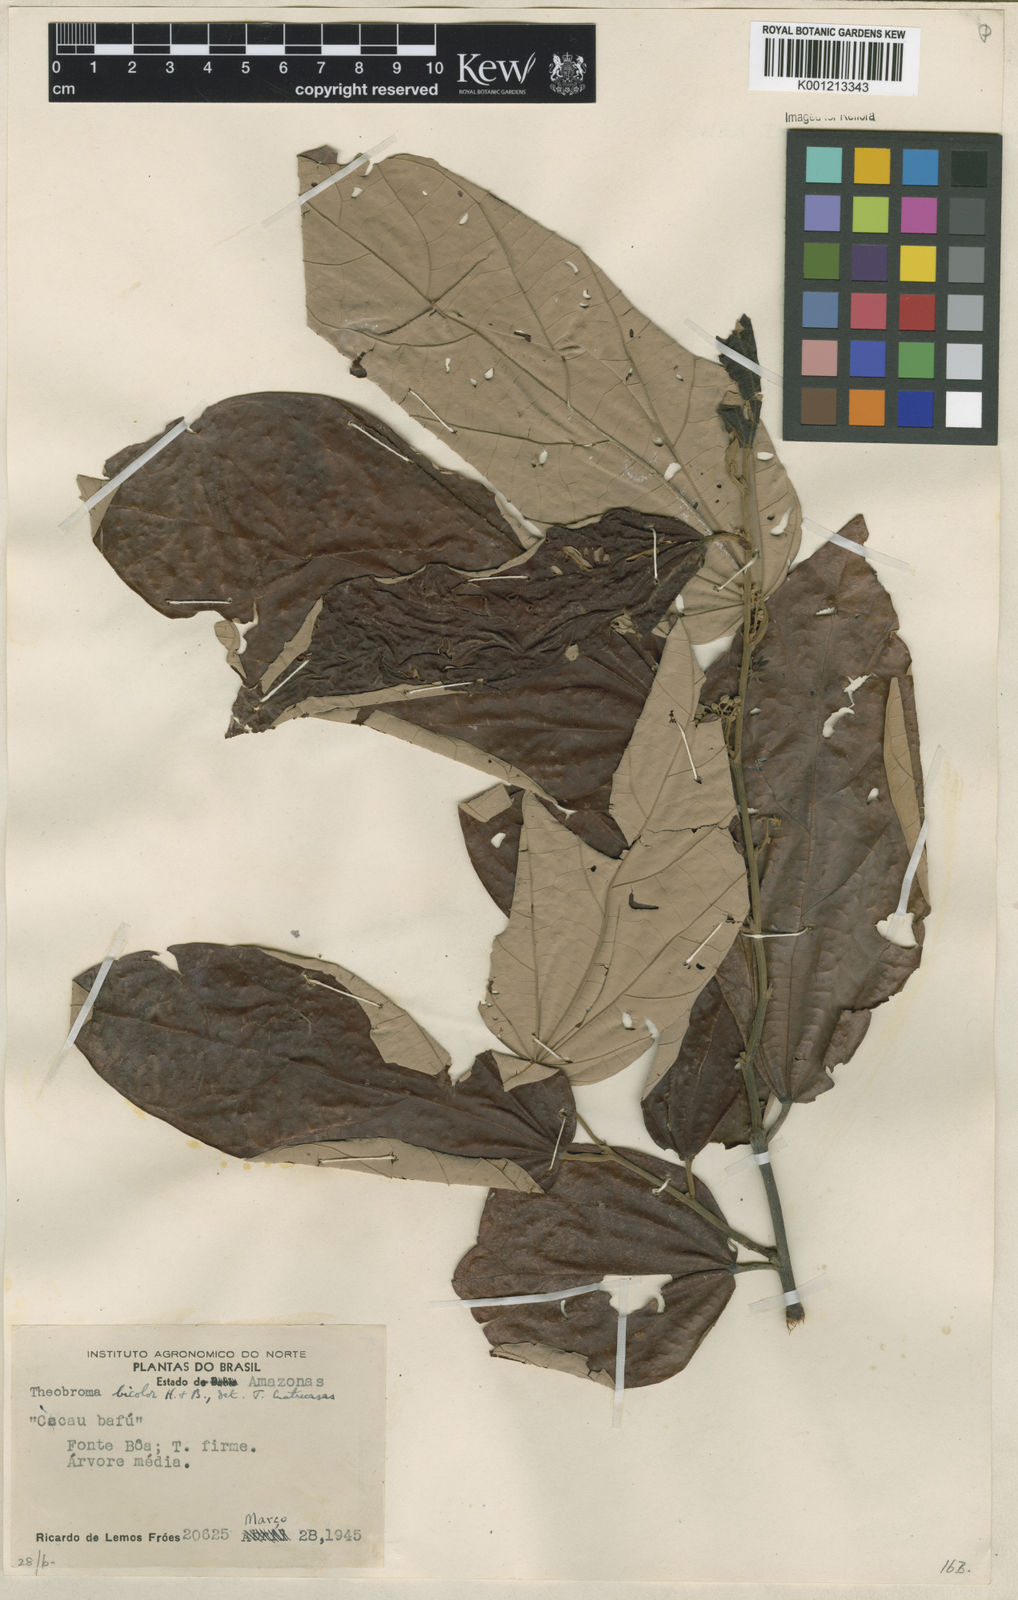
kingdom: Plantae
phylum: Tracheophyta
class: Magnoliopsida
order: Malvales
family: Malvaceae
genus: Theobroma
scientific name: Theobroma
